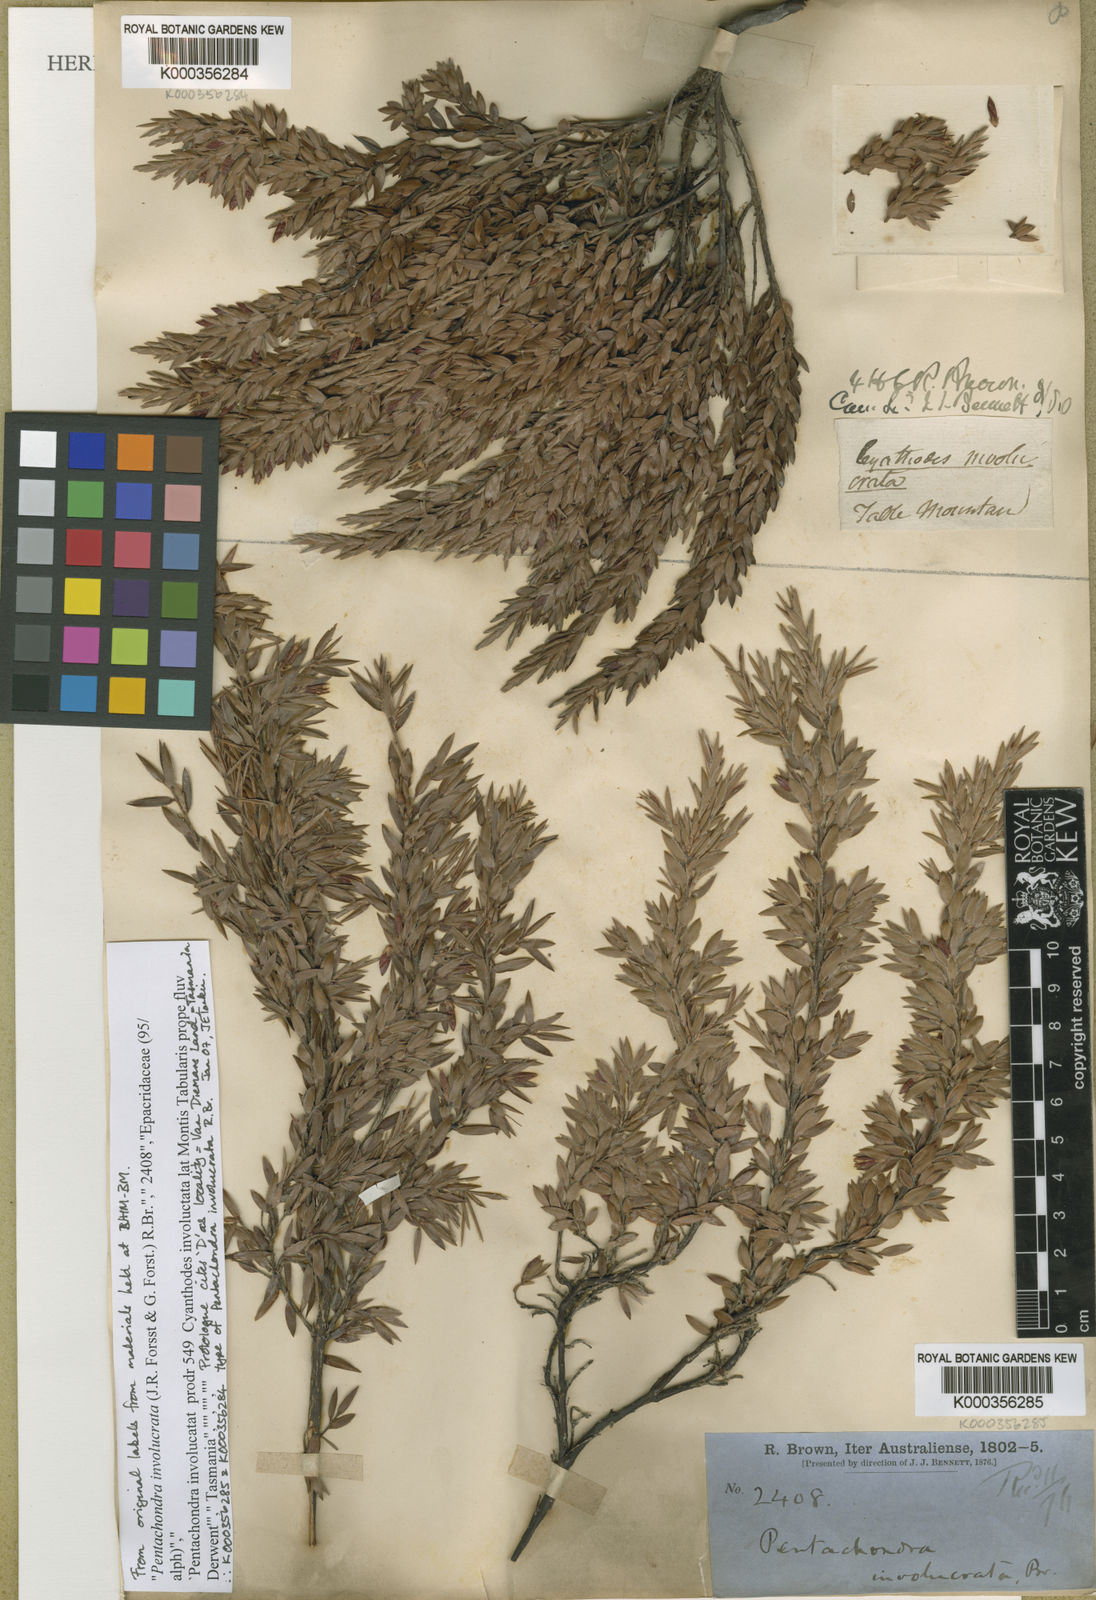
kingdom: Plantae
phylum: Tracheophyta
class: Magnoliopsida
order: Ericales
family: Ericaceae
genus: Pentachondra
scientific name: Pentachondra involucrata
